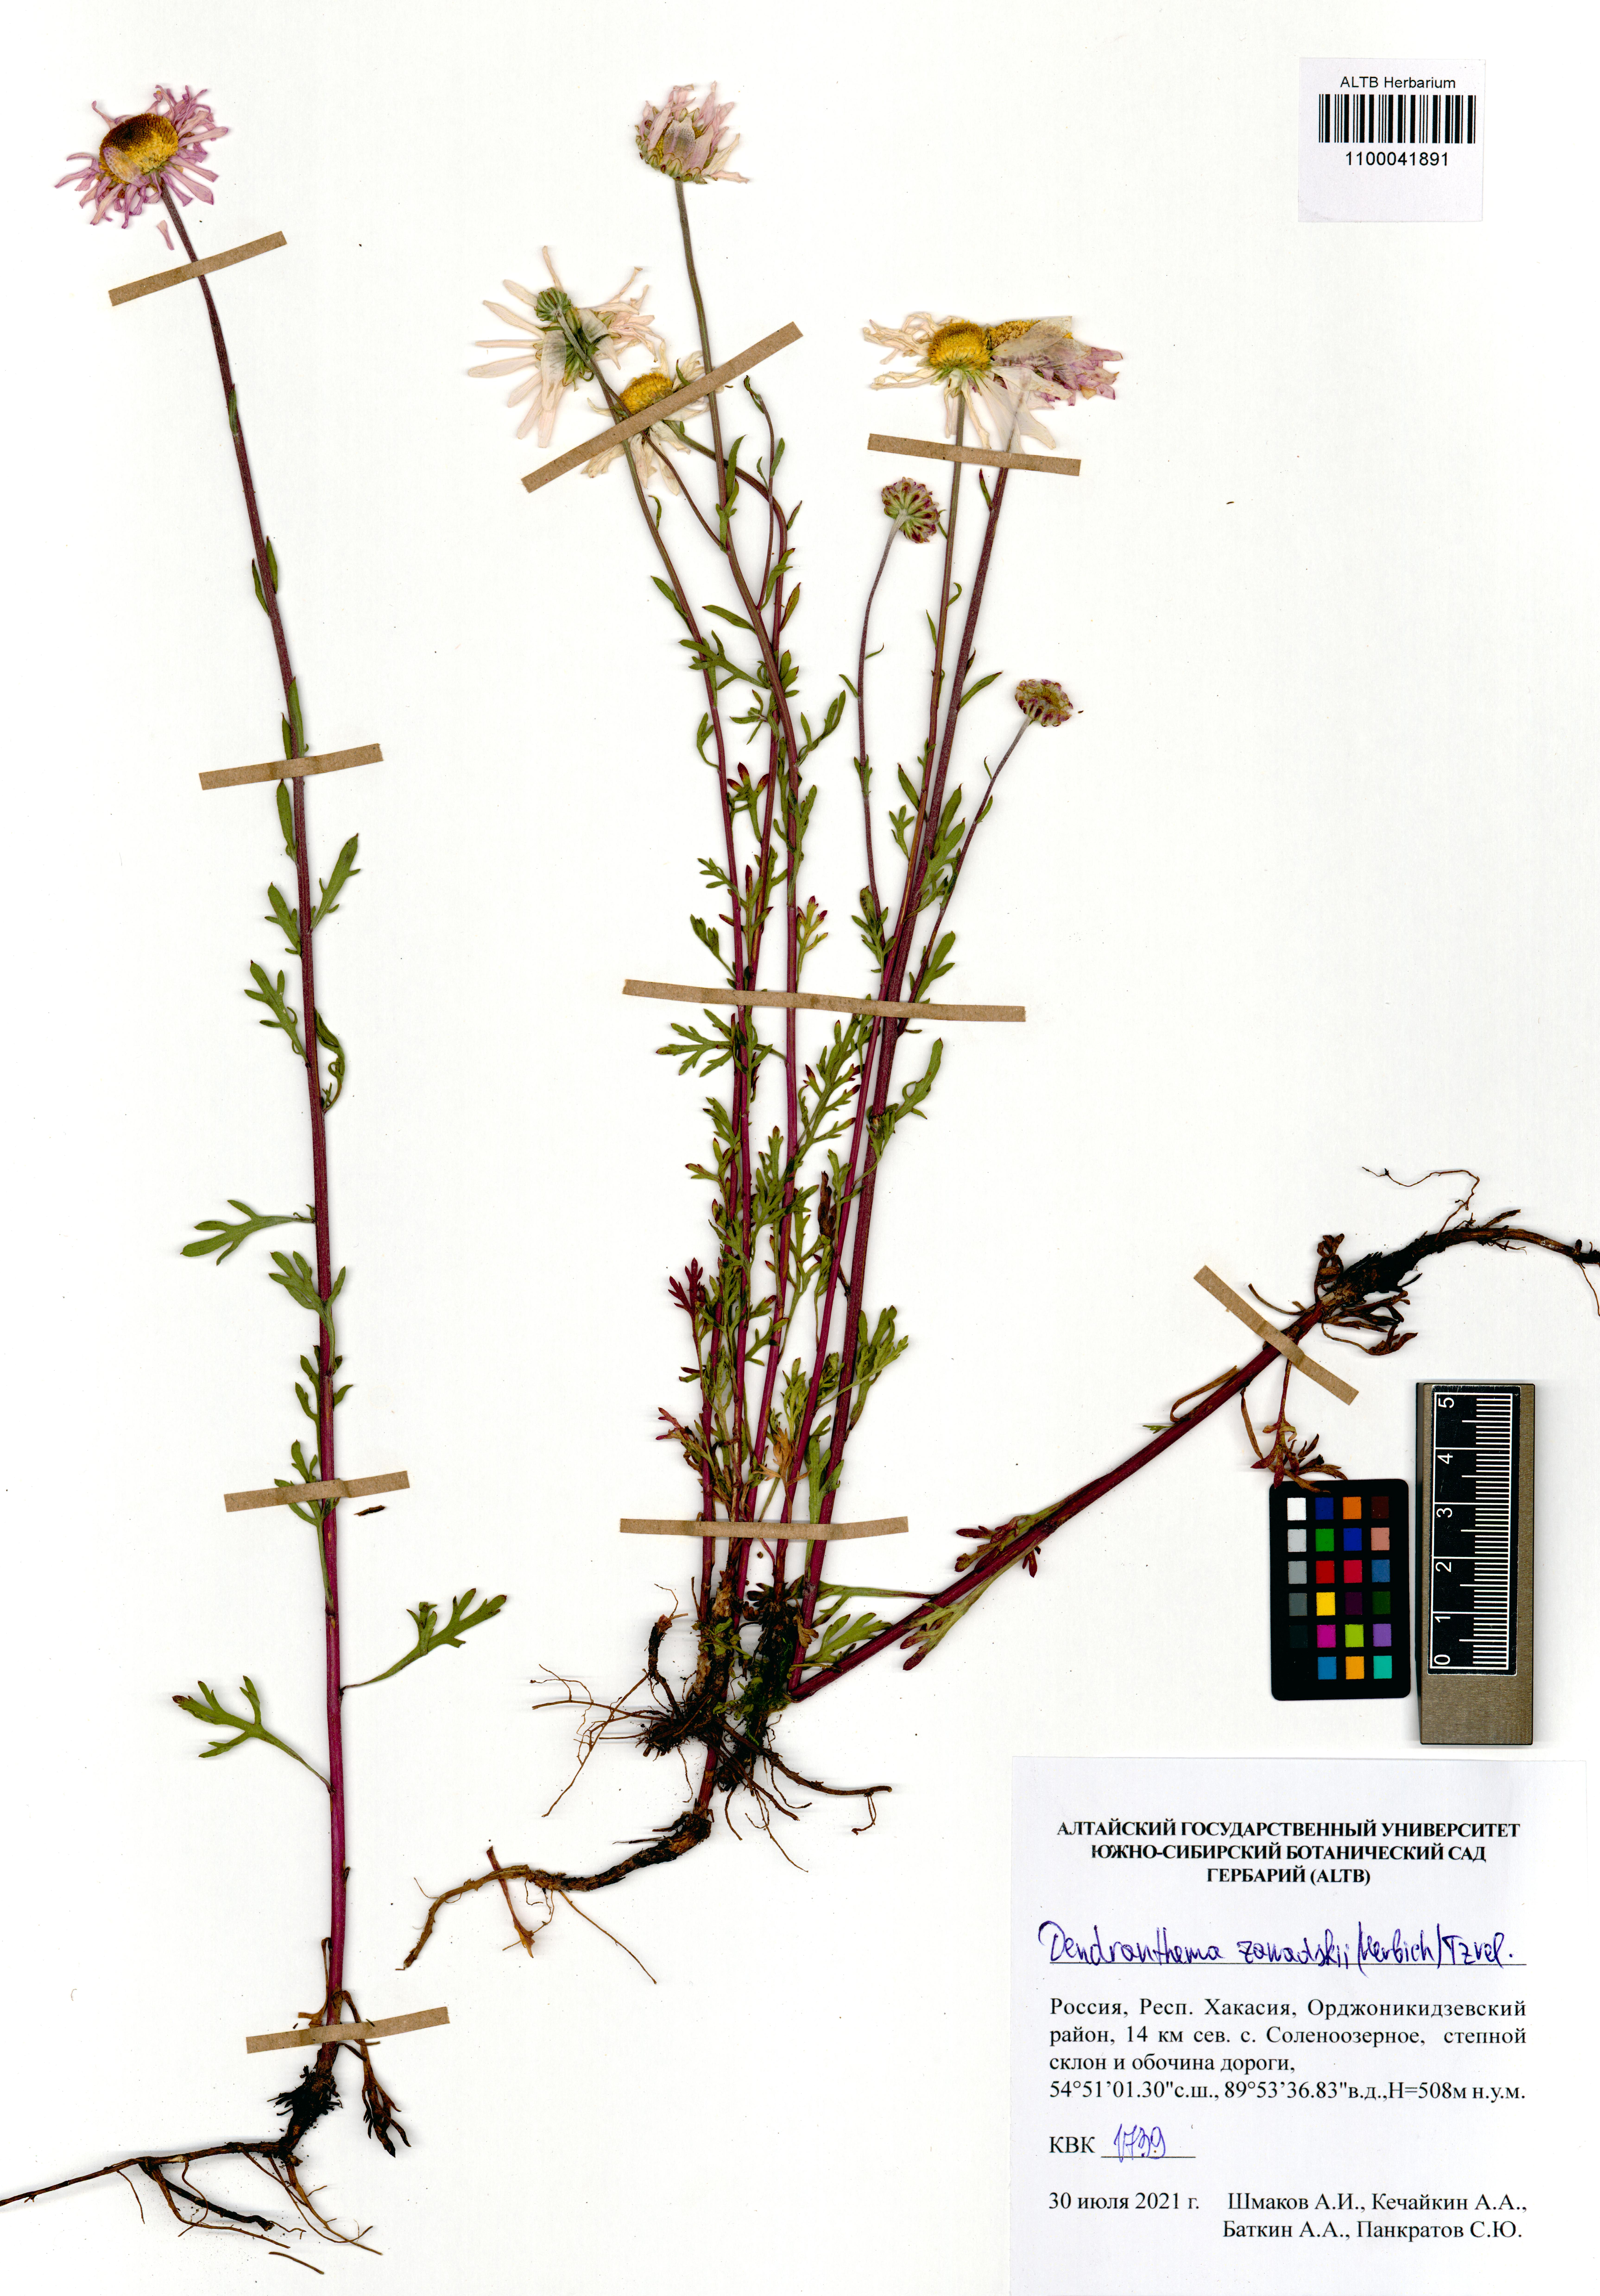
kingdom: Plantae
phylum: Tracheophyta
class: Magnoliopsida
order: Asterales
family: Asteraceae
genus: Chrysanthemum
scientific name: Chrysanthemum zawadzkii
